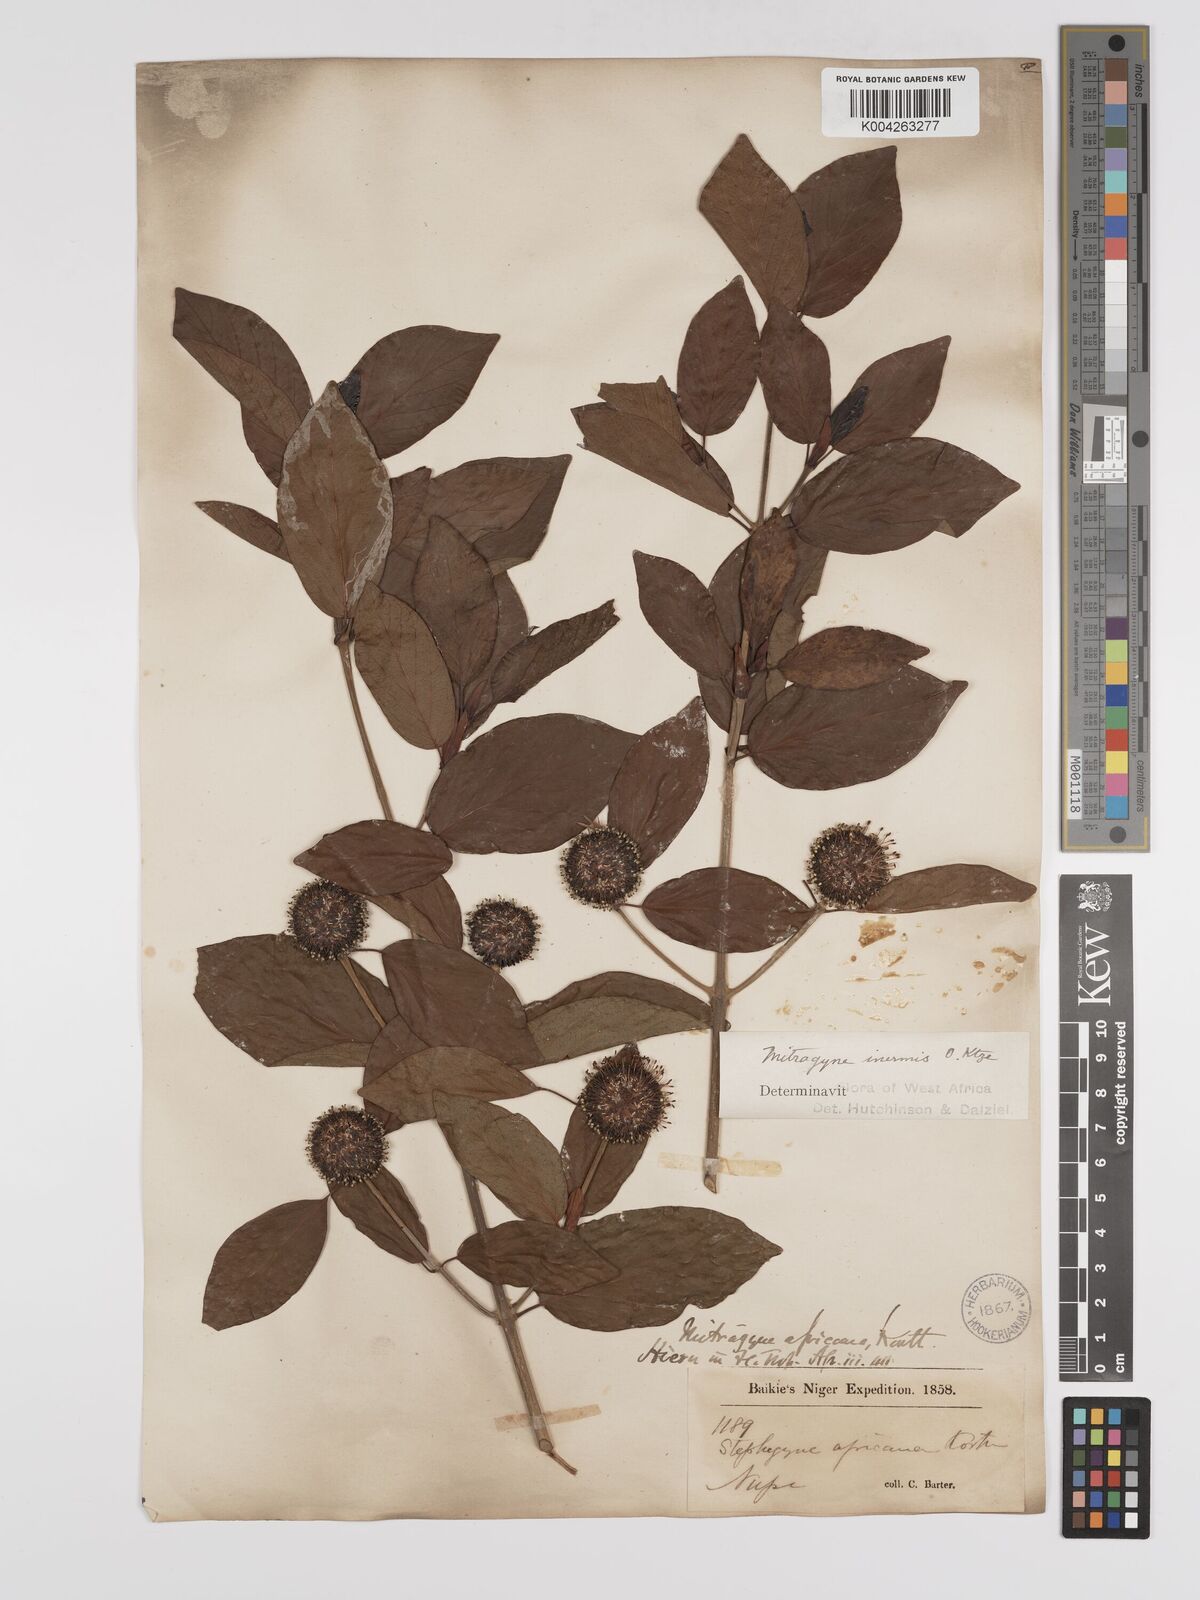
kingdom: Plantae
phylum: Tracheophyta
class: Magnoliopsida
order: Gentianales
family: Rubiaceae
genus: Mitragyna
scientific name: Mitragyna inermis
